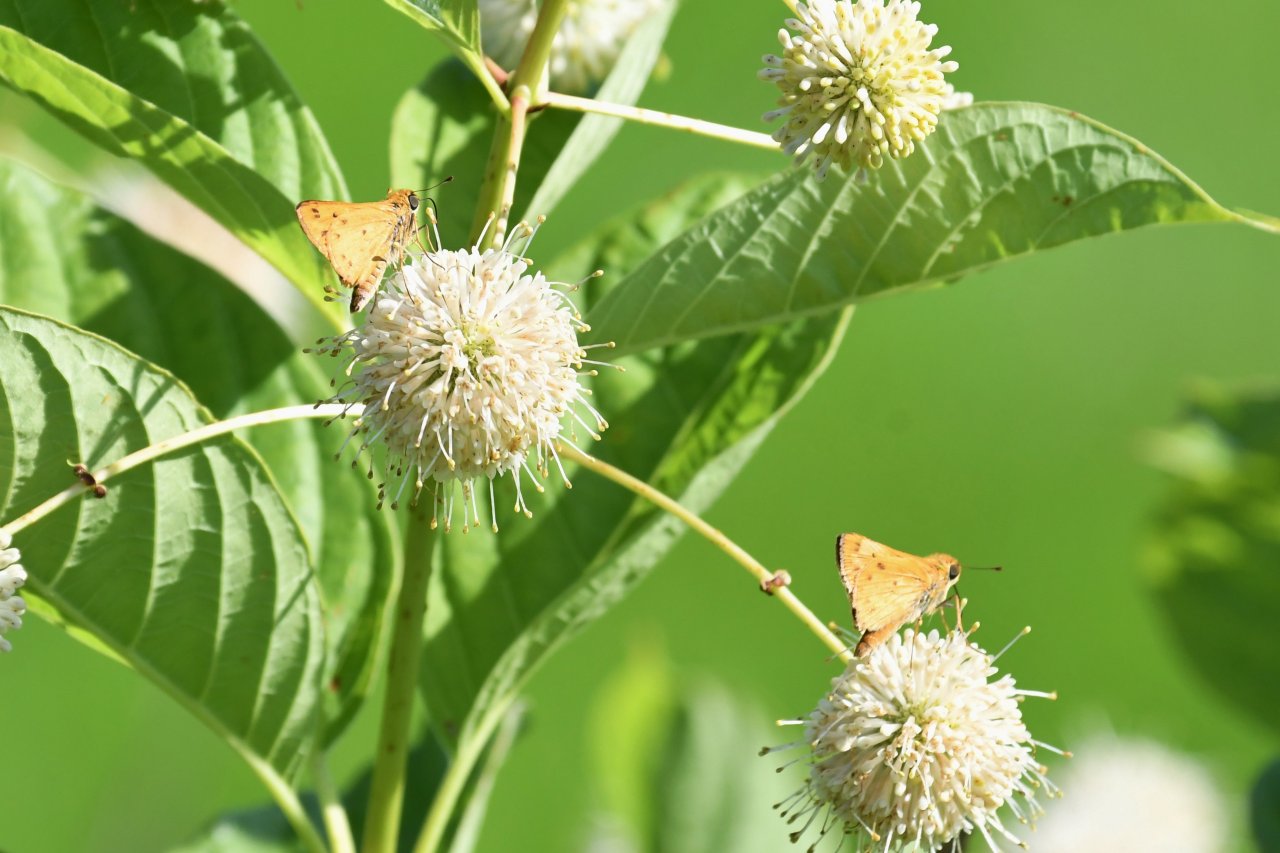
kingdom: Animalia
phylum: Arthropoda
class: Insecta
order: Lepidoptera
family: Hesperiidae
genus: Hylephila
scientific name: Hylephila phyleus
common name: Fiery Skipper
